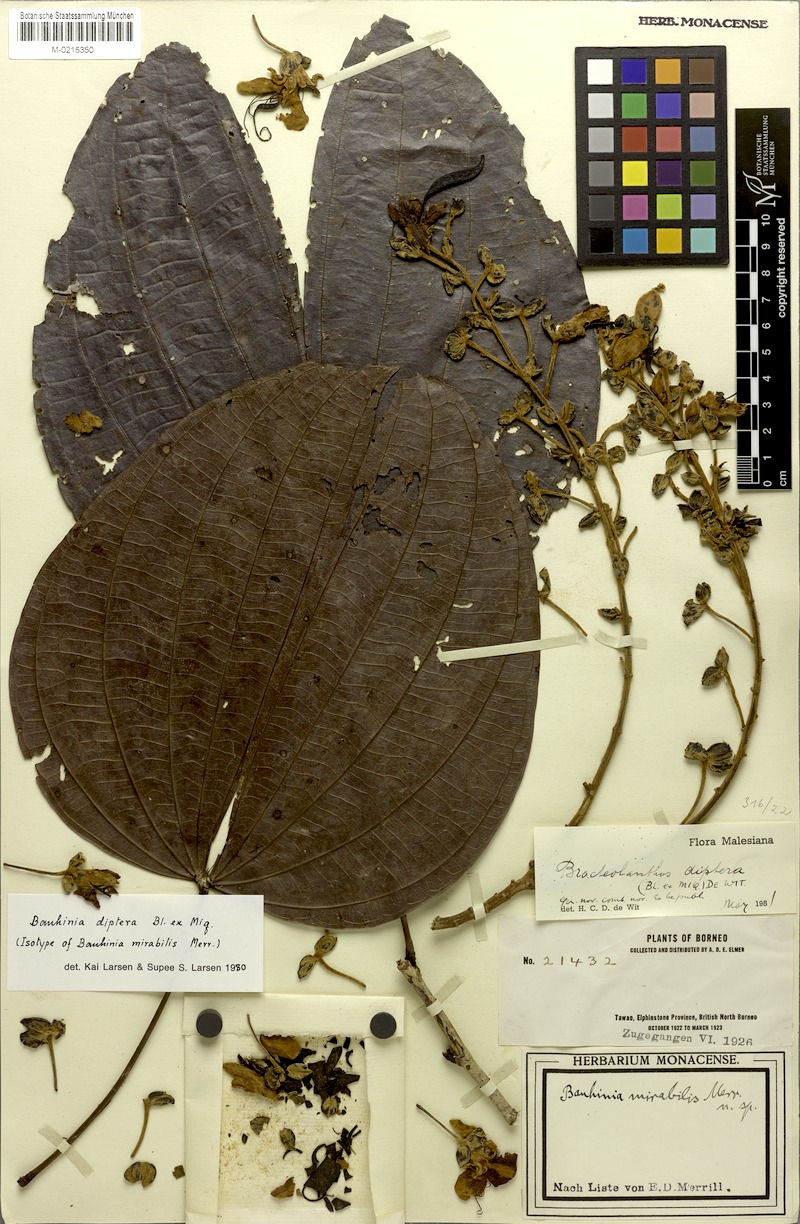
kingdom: Plantae
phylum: Tracheophyta
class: Magnoliopsida
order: Fabales
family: Fabaceae
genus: Phanera
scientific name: Phanera yunnanensis
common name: Phanera
